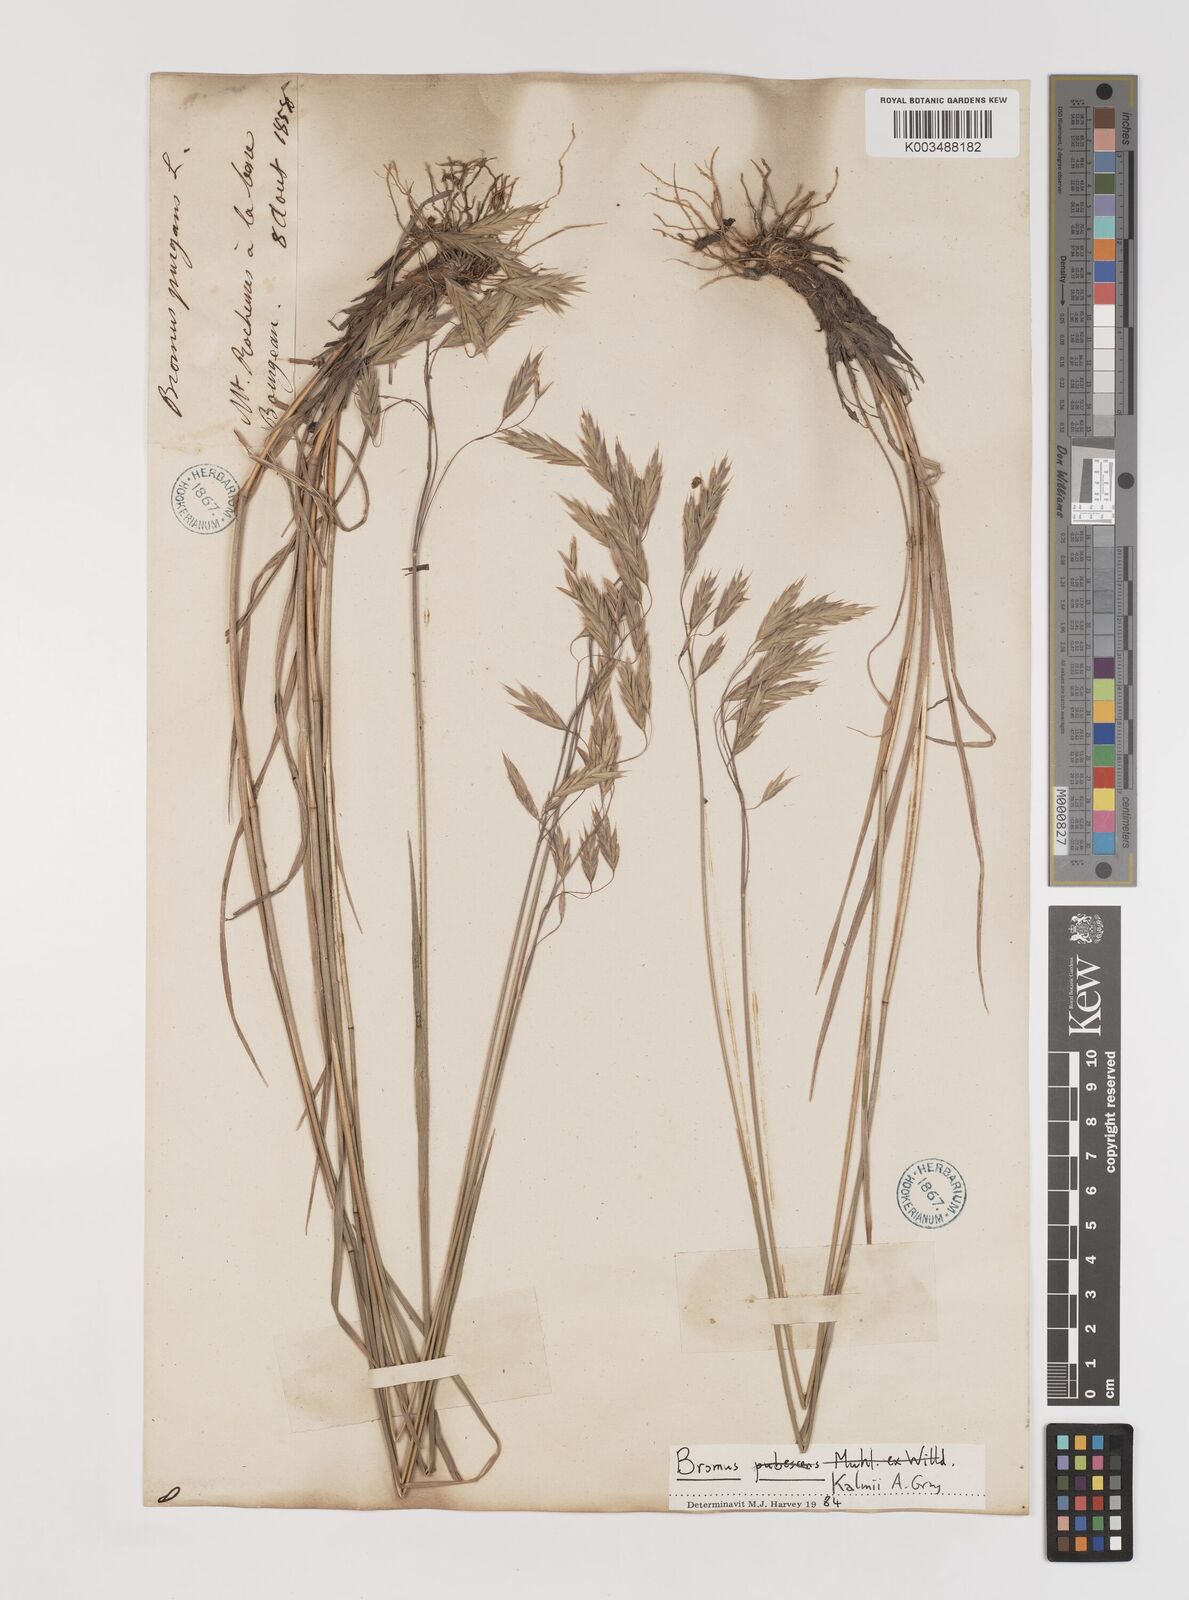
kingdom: Plantae
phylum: Tracheophyta
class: Liliopsida
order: Poales
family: Poaceae
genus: Bromus
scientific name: Bromus kalmii
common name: Kalm brome
